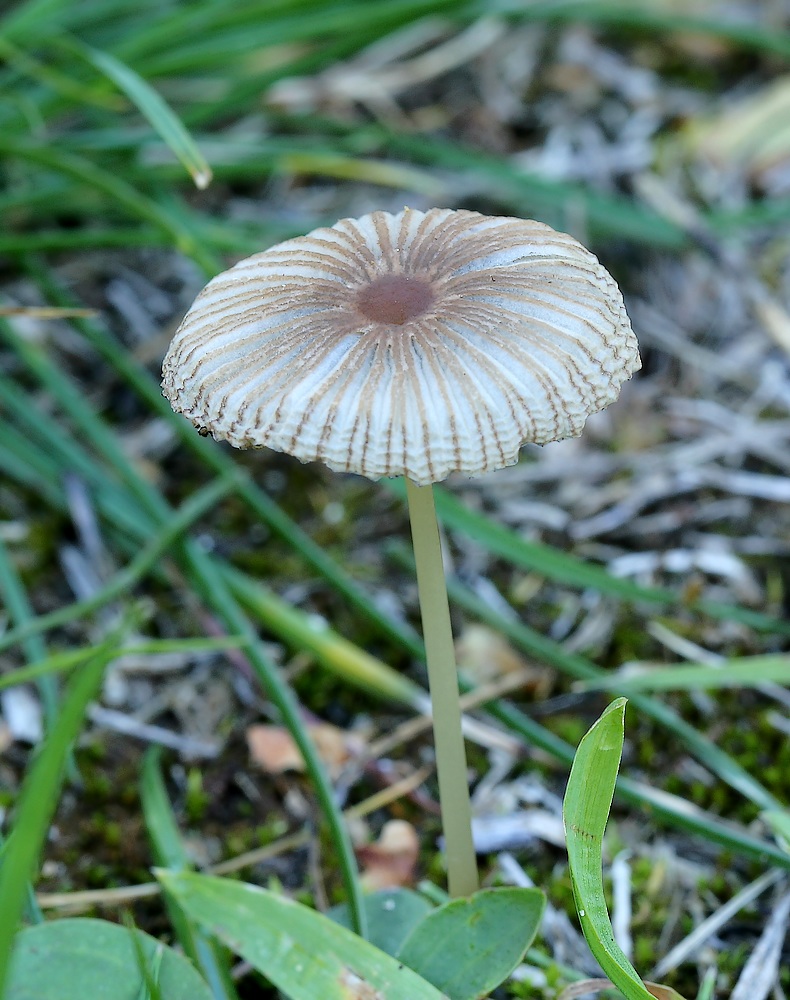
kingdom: Fungi
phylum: Basidiomycota
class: Agaricomycetes
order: Agaricales
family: Psathyrellaceae
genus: Parasola
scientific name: Parasola plicatilis-similis
